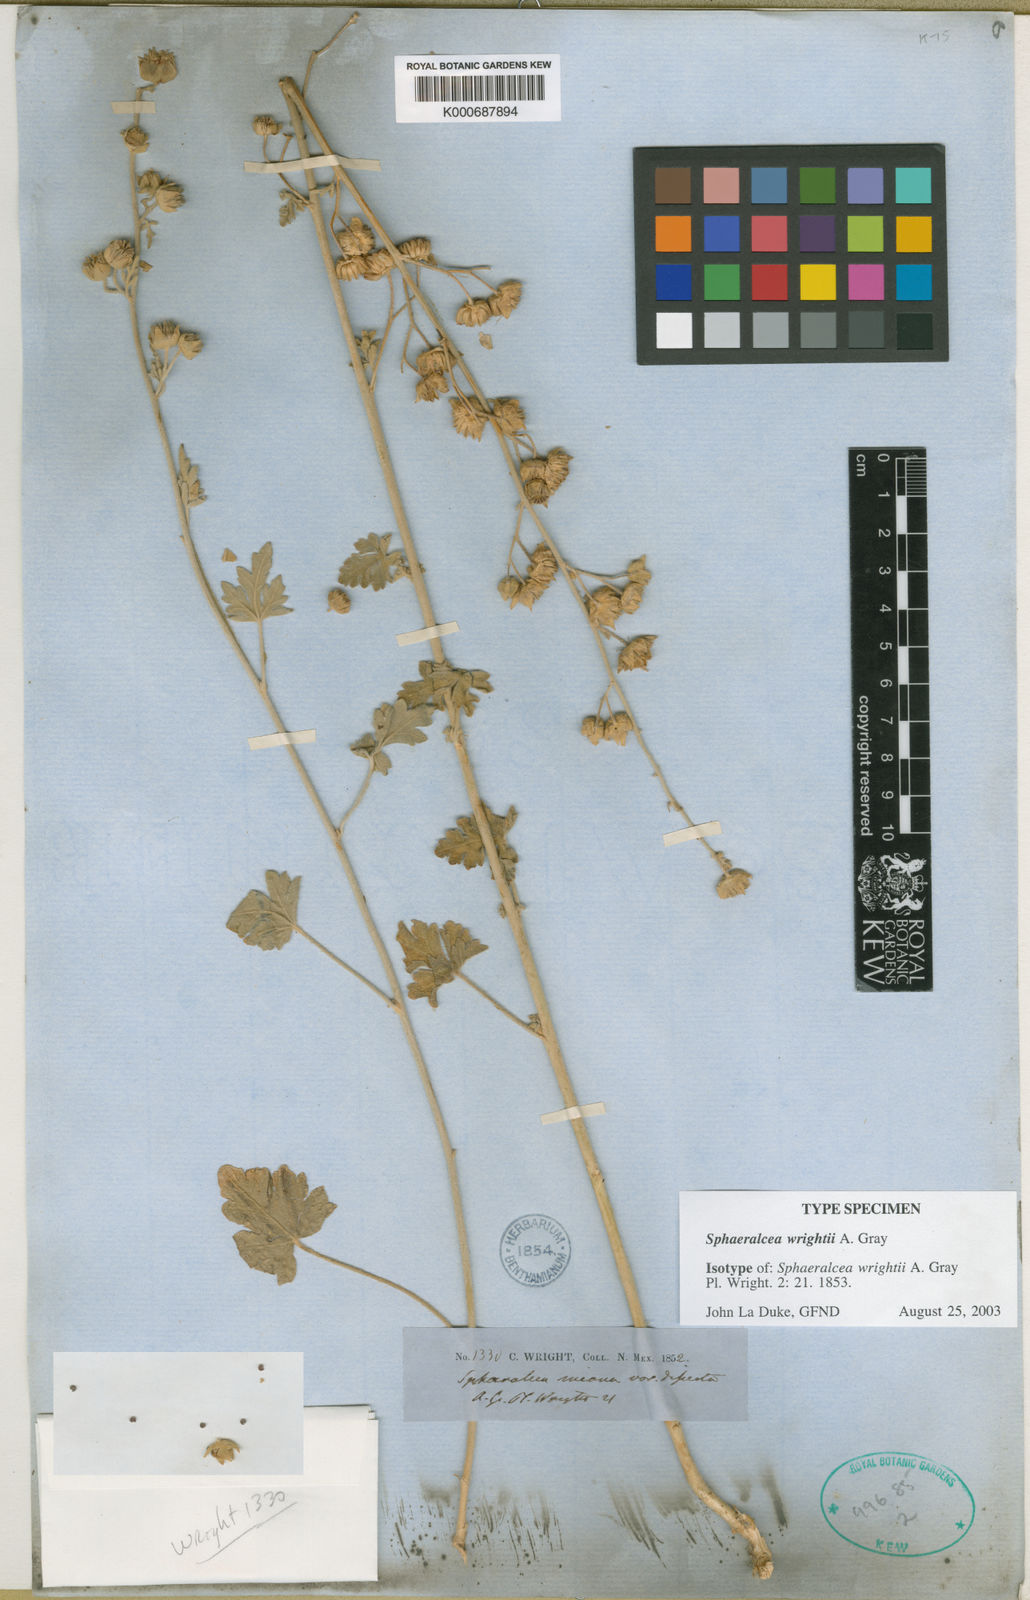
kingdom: Plantae
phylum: Tracheophyta
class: Magnoliopsida
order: Malvales
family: Malvaceae
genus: Sphaeralcea
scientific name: Sphaeralcea wrightii
